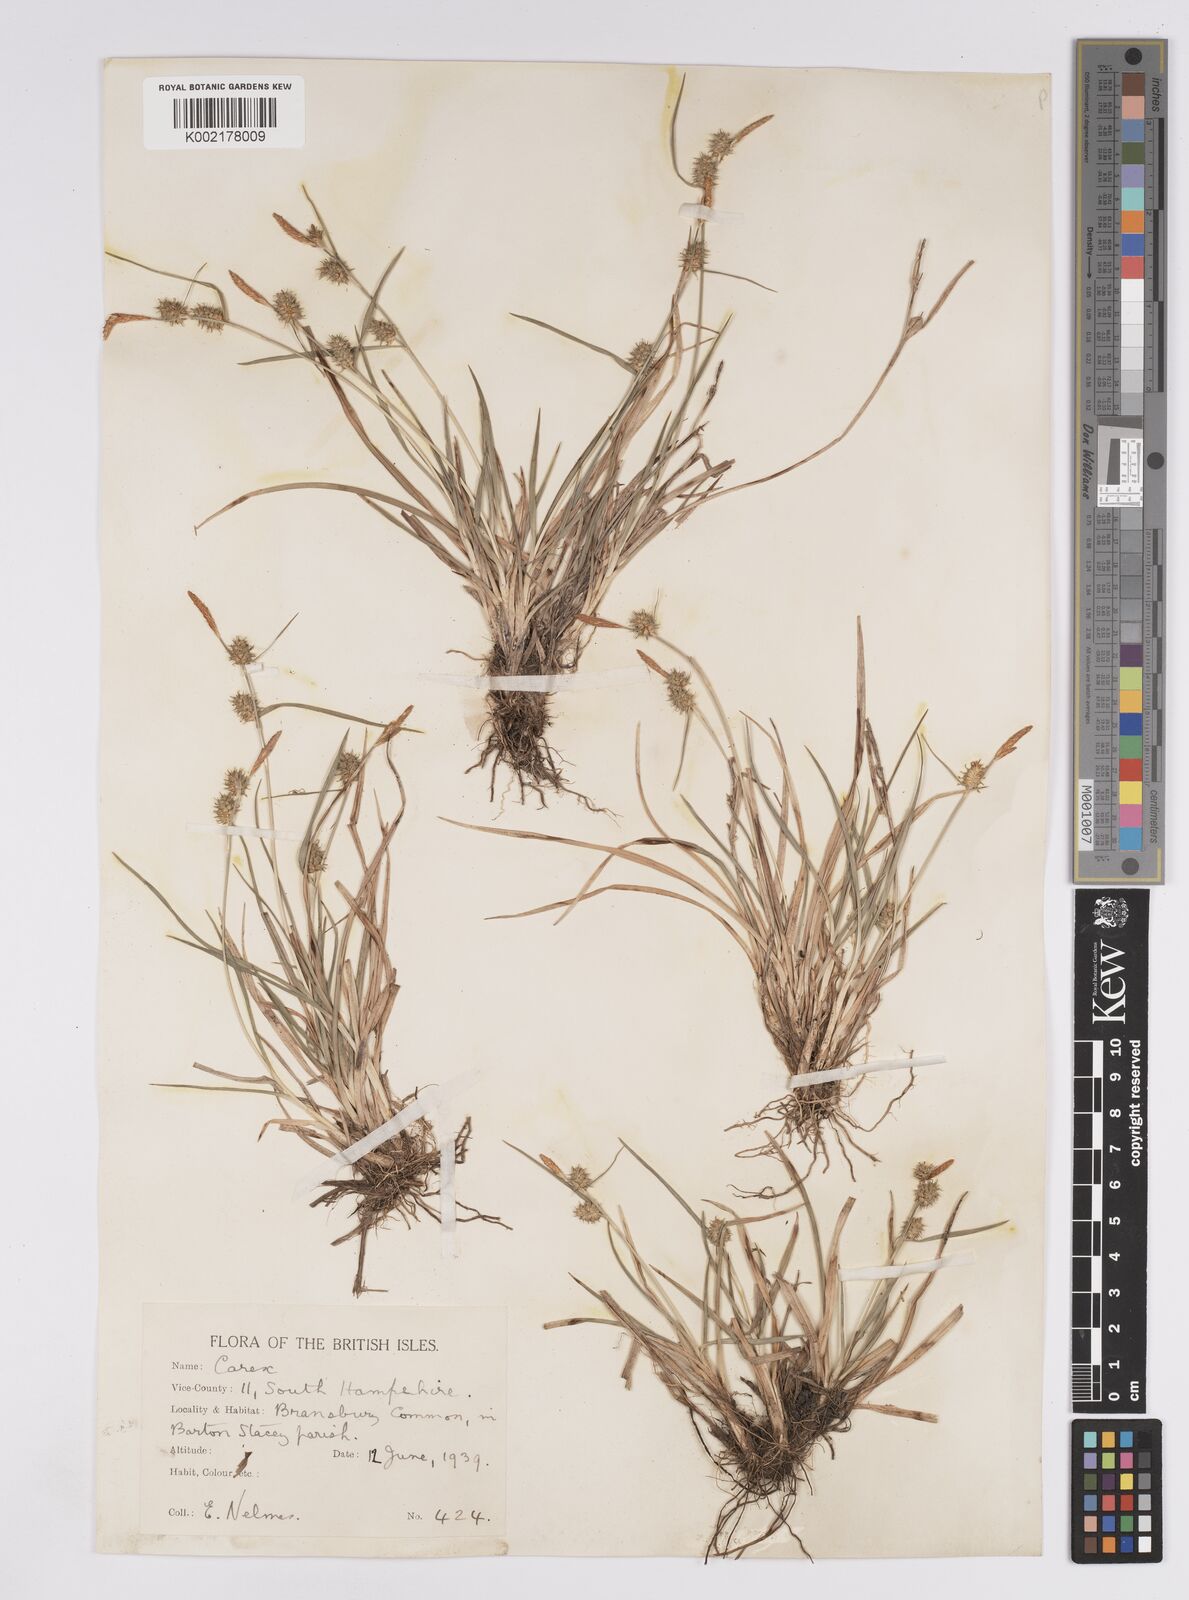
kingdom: Plantae
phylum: Tracheophyta
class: Liliopsida
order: Poales
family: Cyperaceae
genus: Carex
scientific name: Carex demissa
